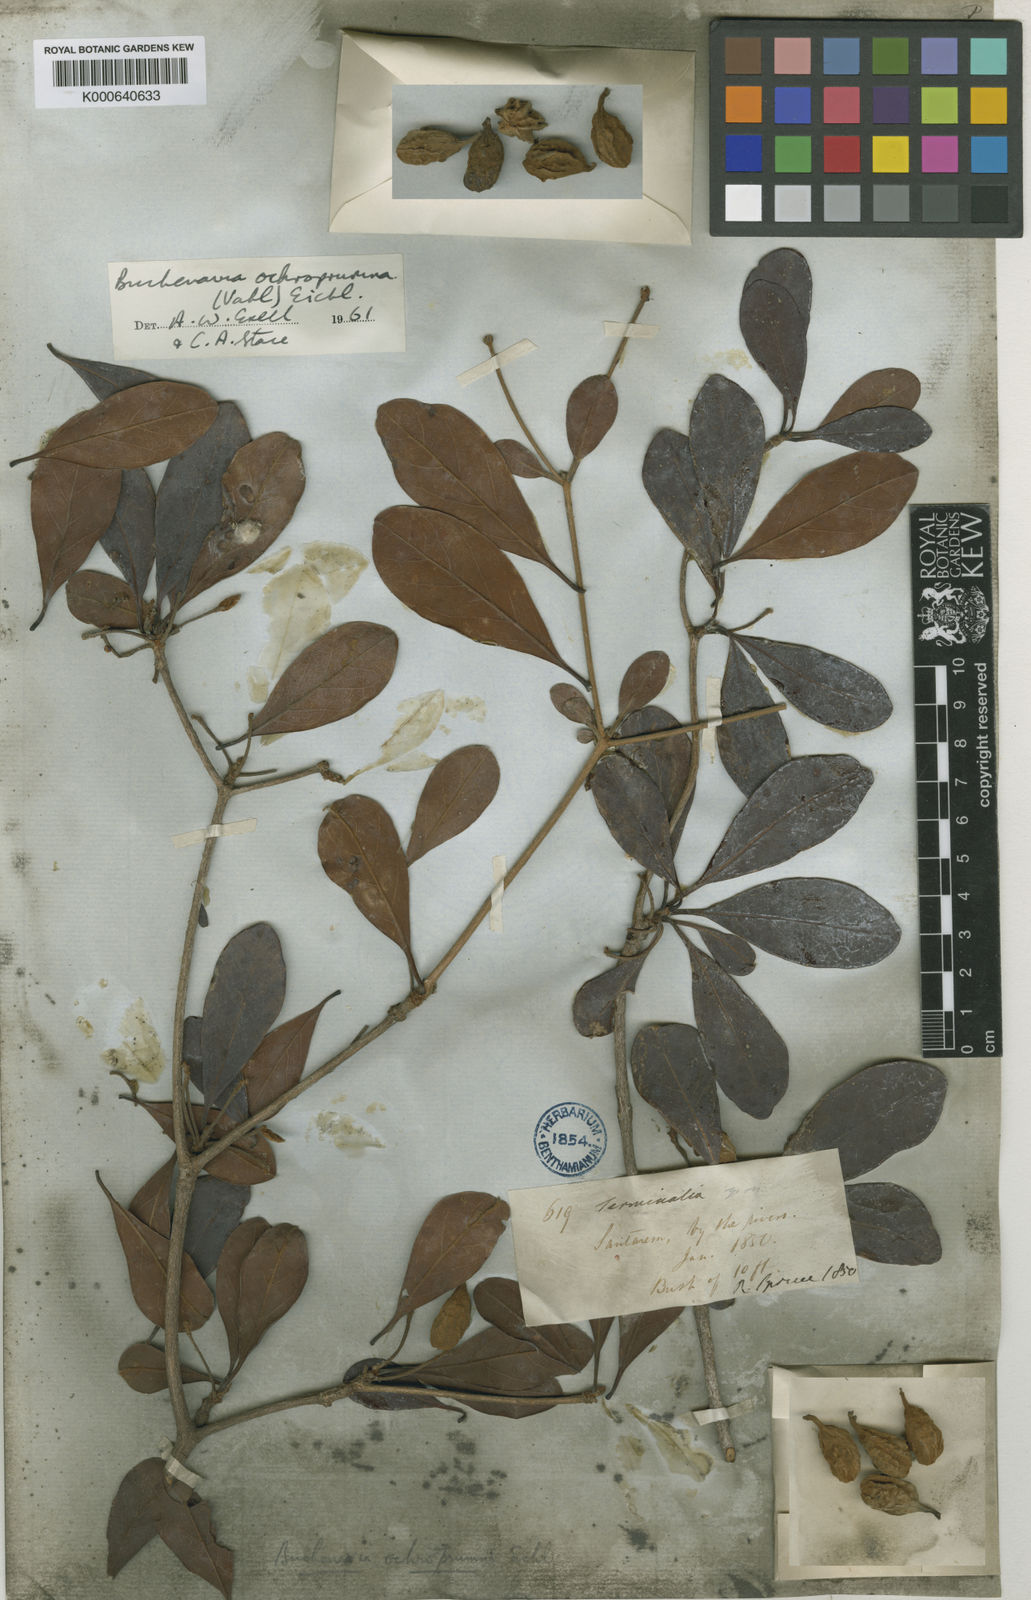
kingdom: Plantae
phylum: Tracheophyta
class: Magnoliopsida
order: Myrtales
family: Combretaceae
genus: Terminalia
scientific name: Terminalia ochroprumna
